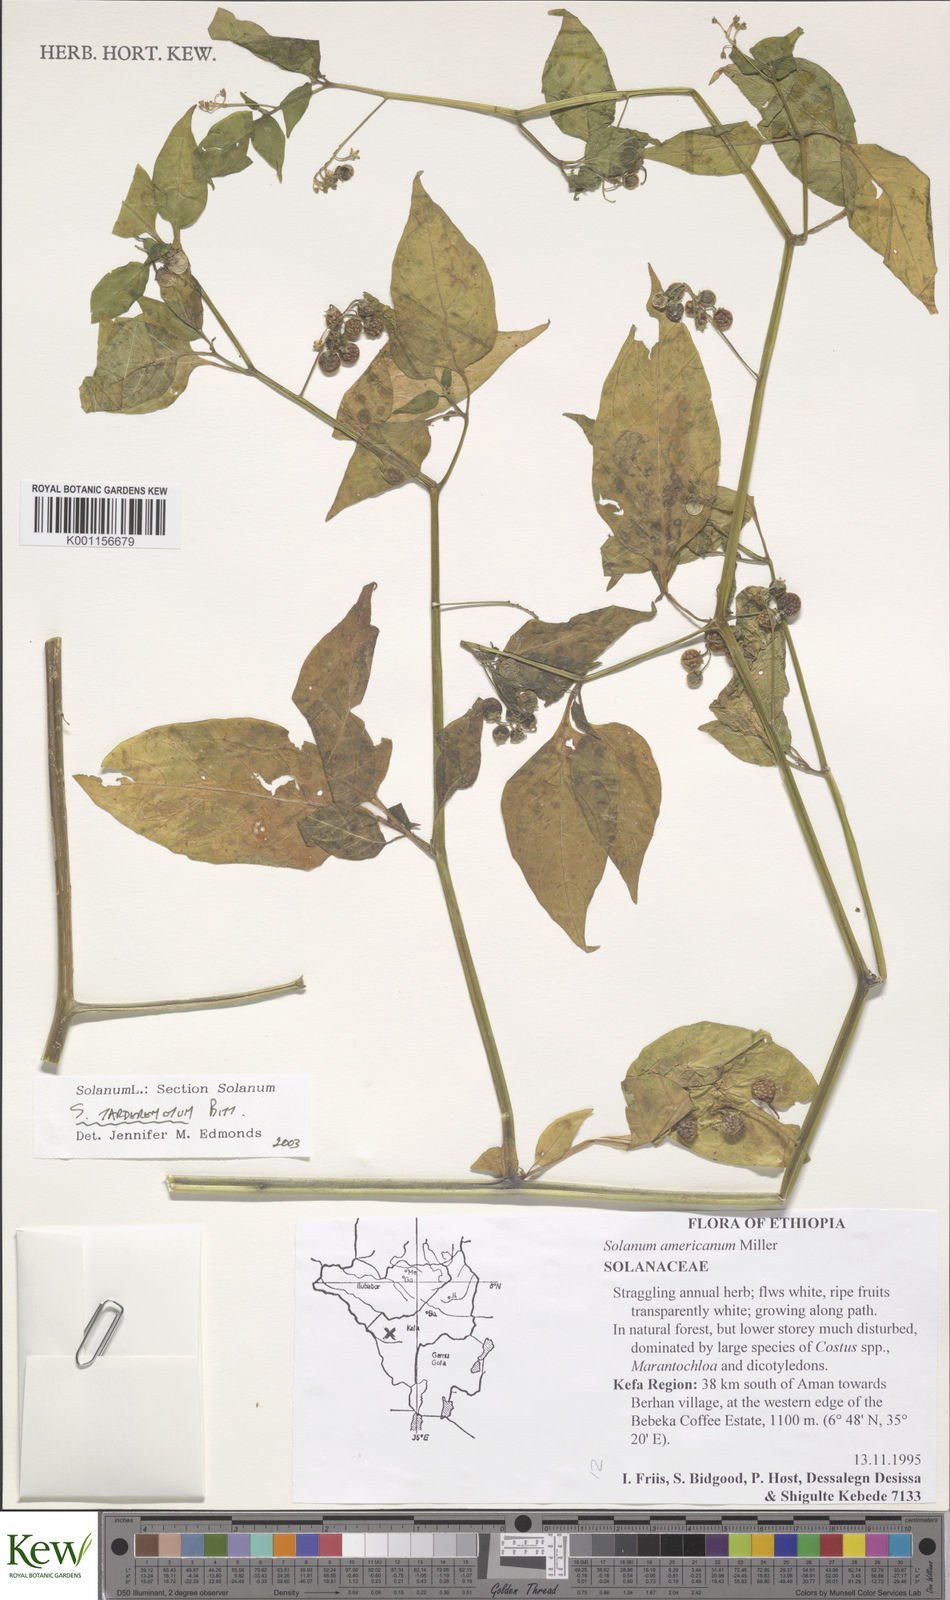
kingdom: Plantae
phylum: Tracheophyta
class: Magnoliopsida
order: Solanales
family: Solanaceae
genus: Solanum
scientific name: Solanum tarderemotum
